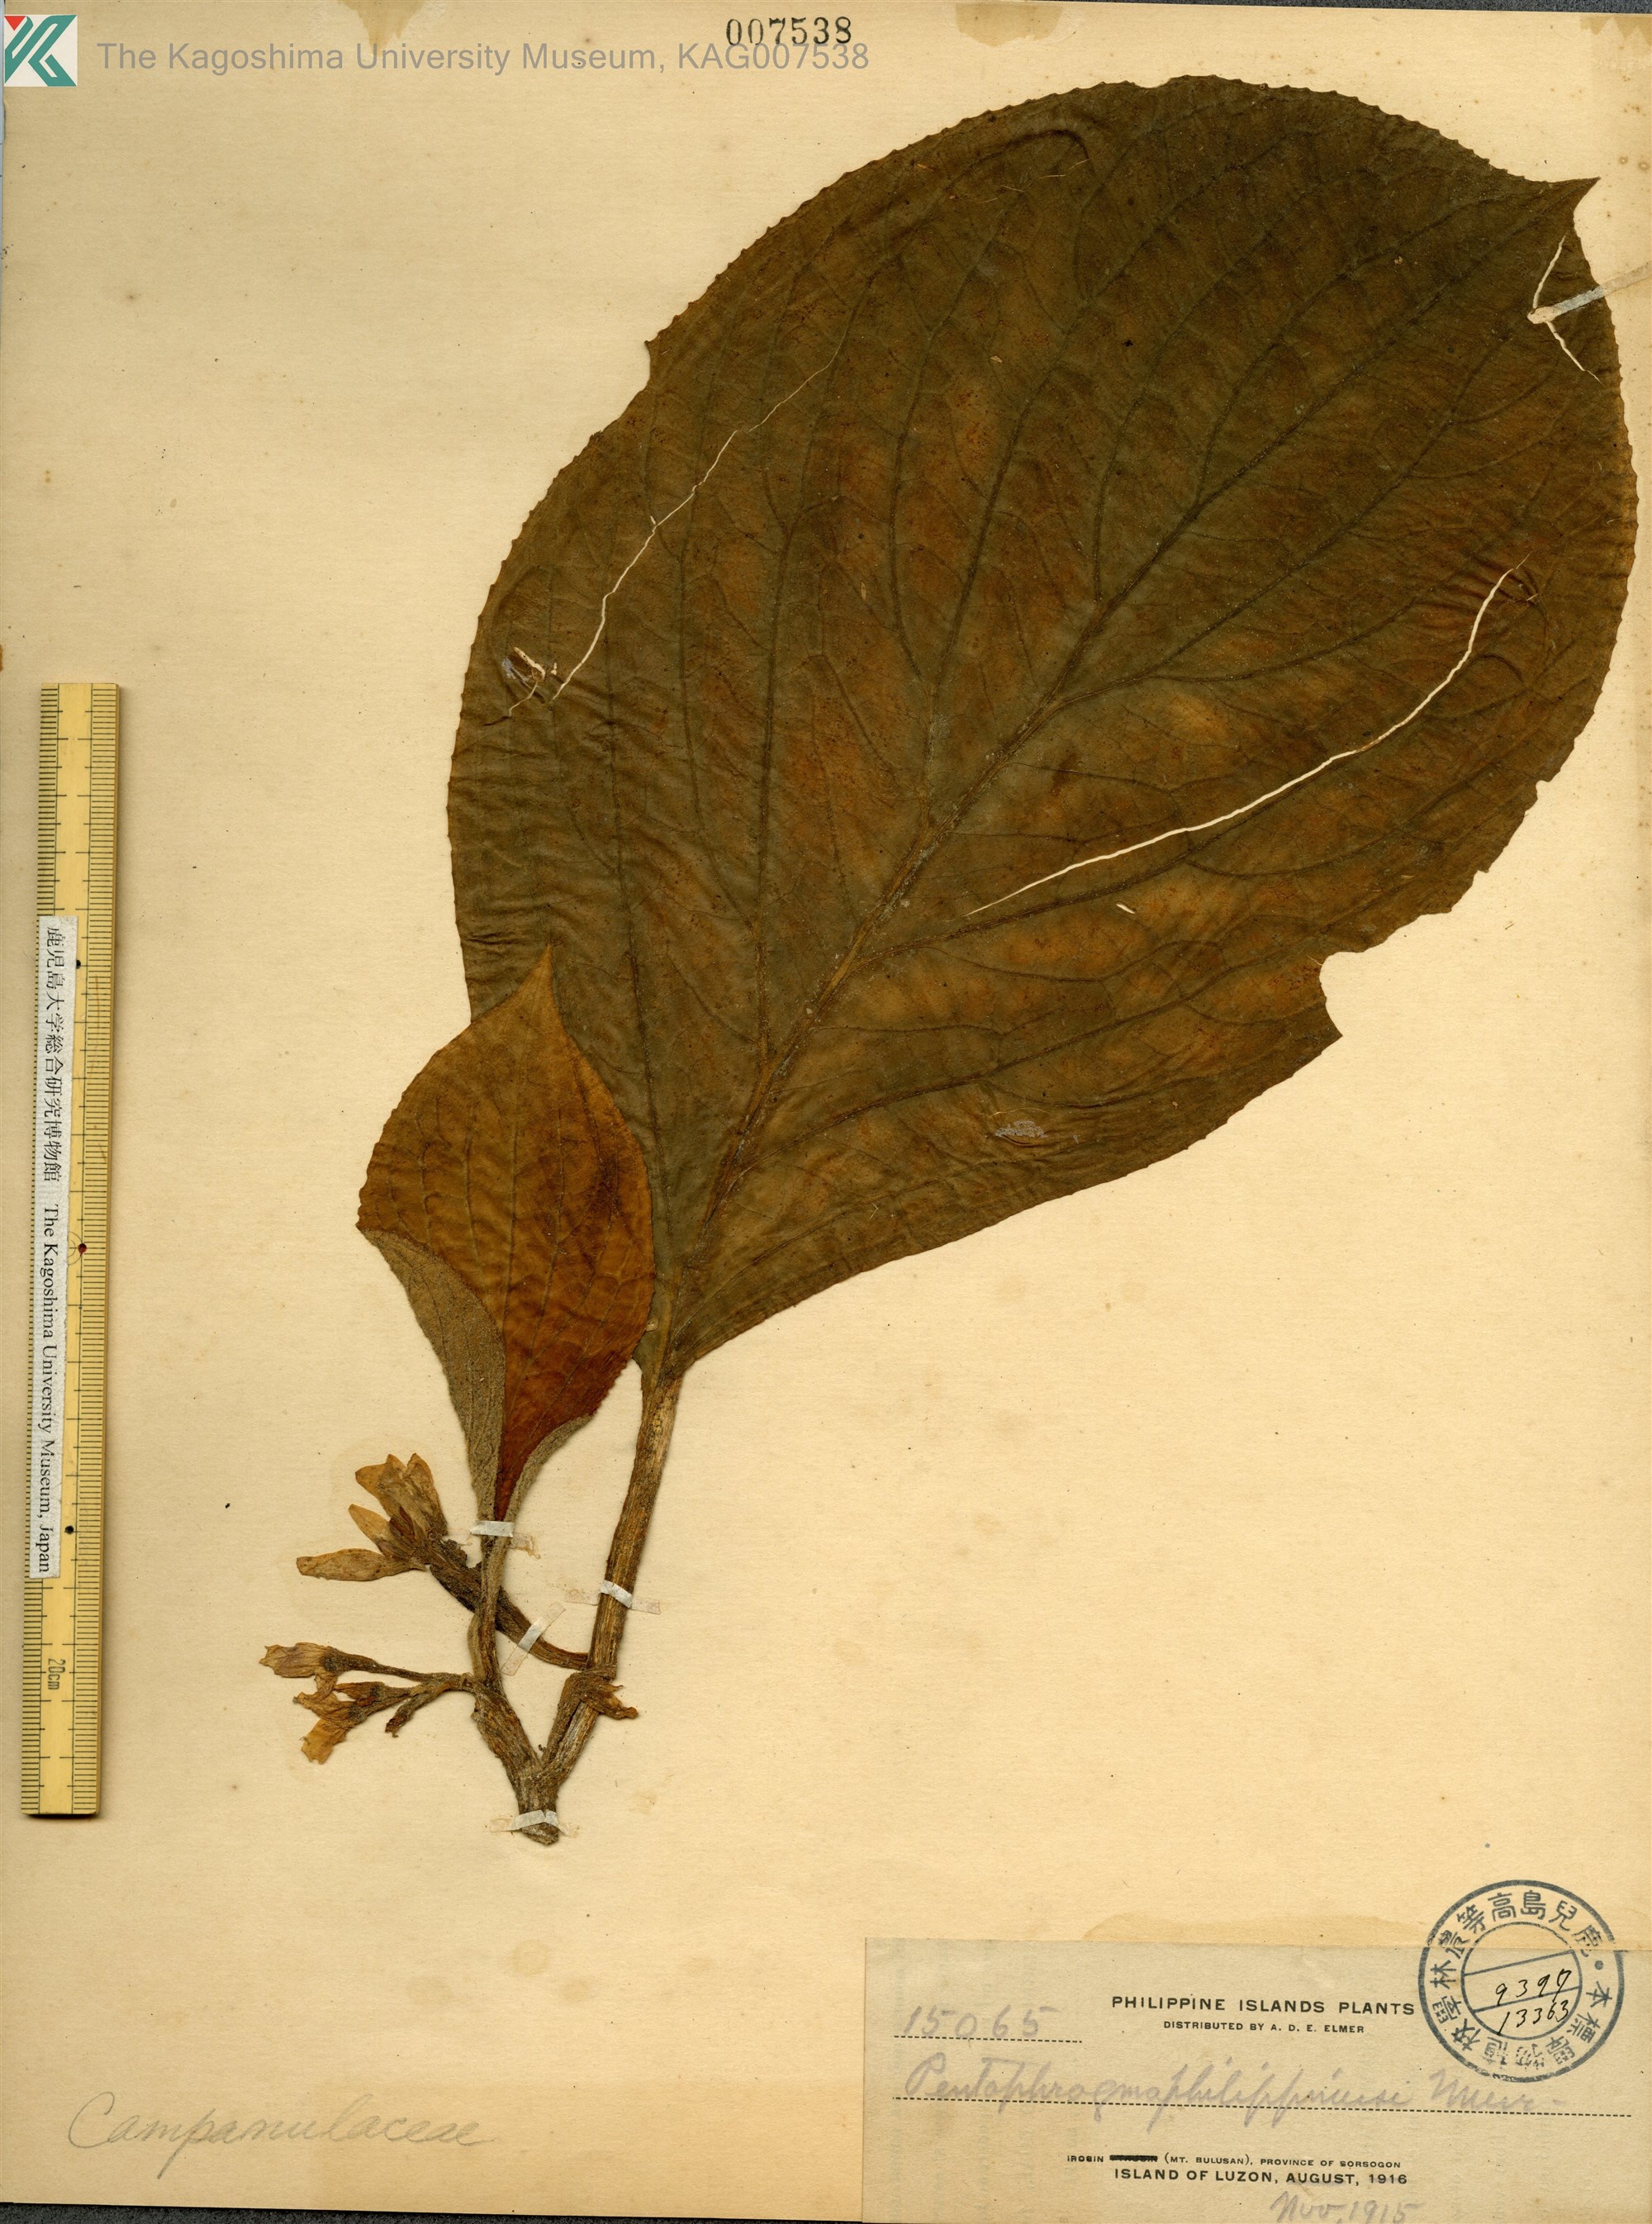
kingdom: Plantae
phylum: Tracheophyta
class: Magnoliopsida
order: Asterales
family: Pentaphragmataceae
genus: Pentaphragma
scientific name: Pentaphragma grandiflorum
